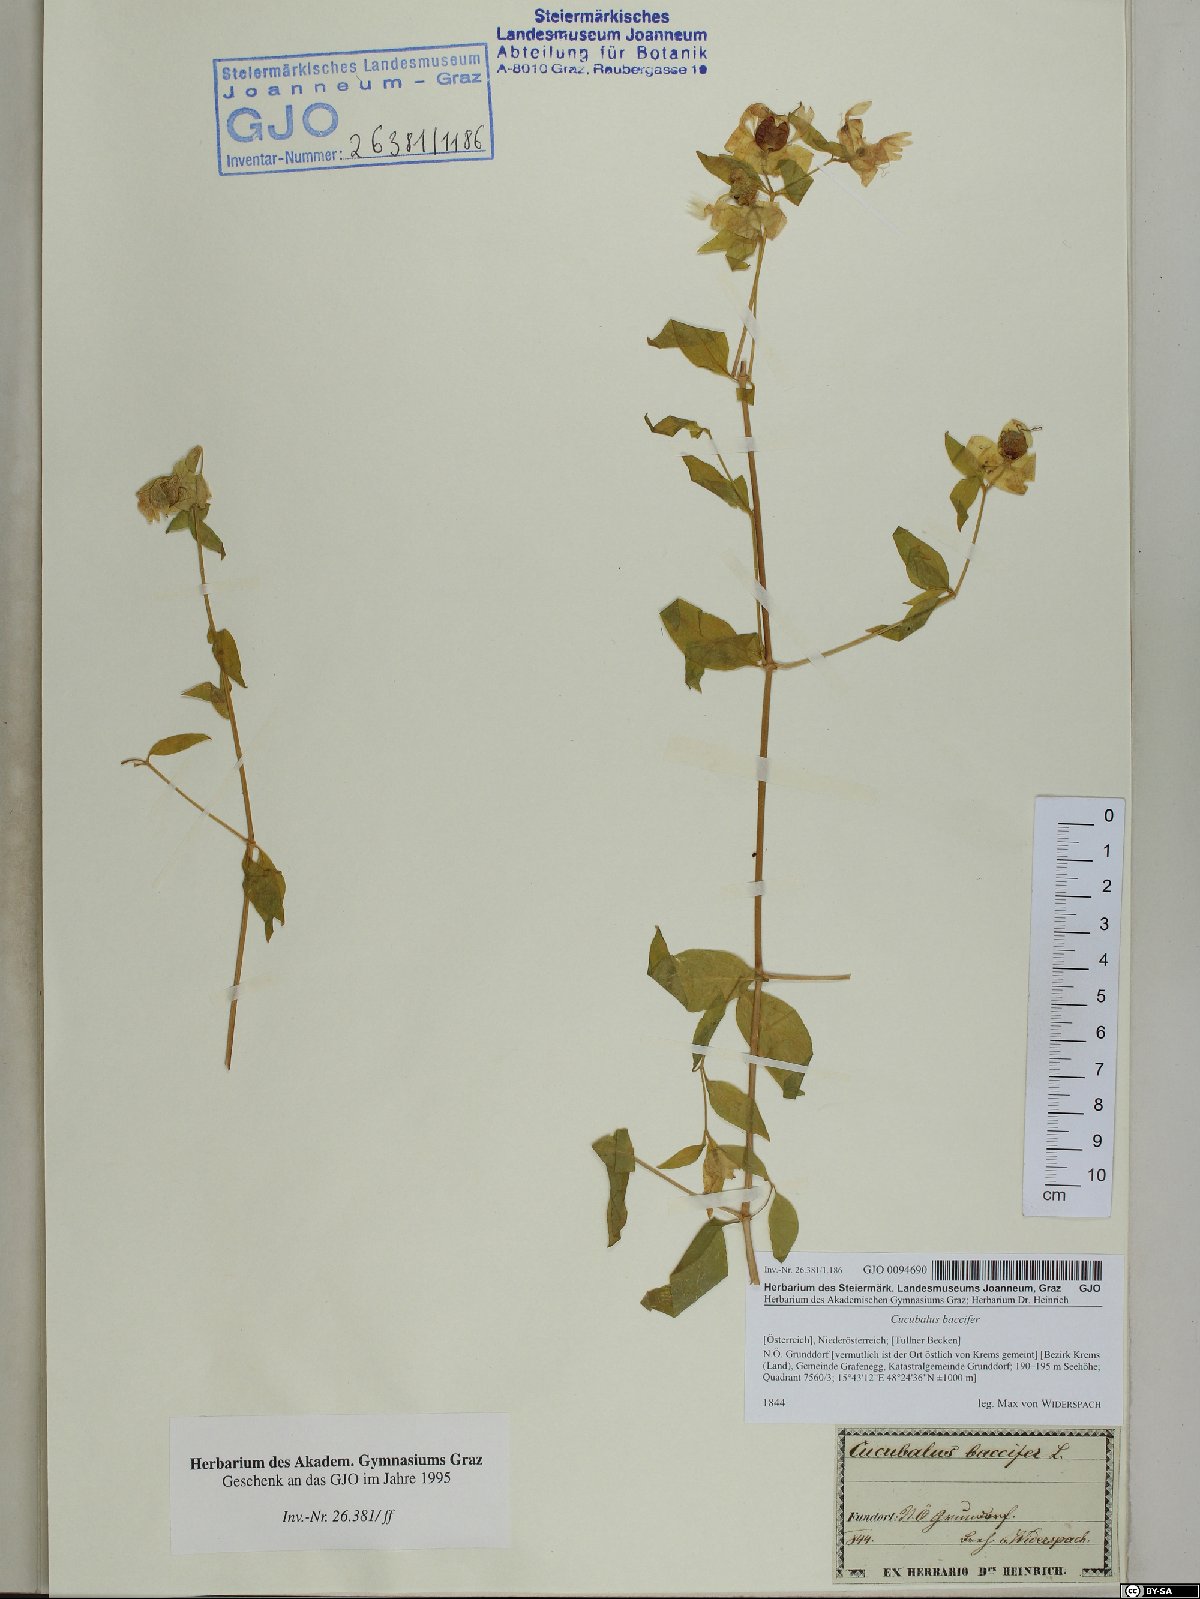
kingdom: Plantae
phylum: Tracheophyta
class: Magnoliopsida
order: Caryophyllales
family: Caryophyllaceae
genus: Silene
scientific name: Silene baccifera
